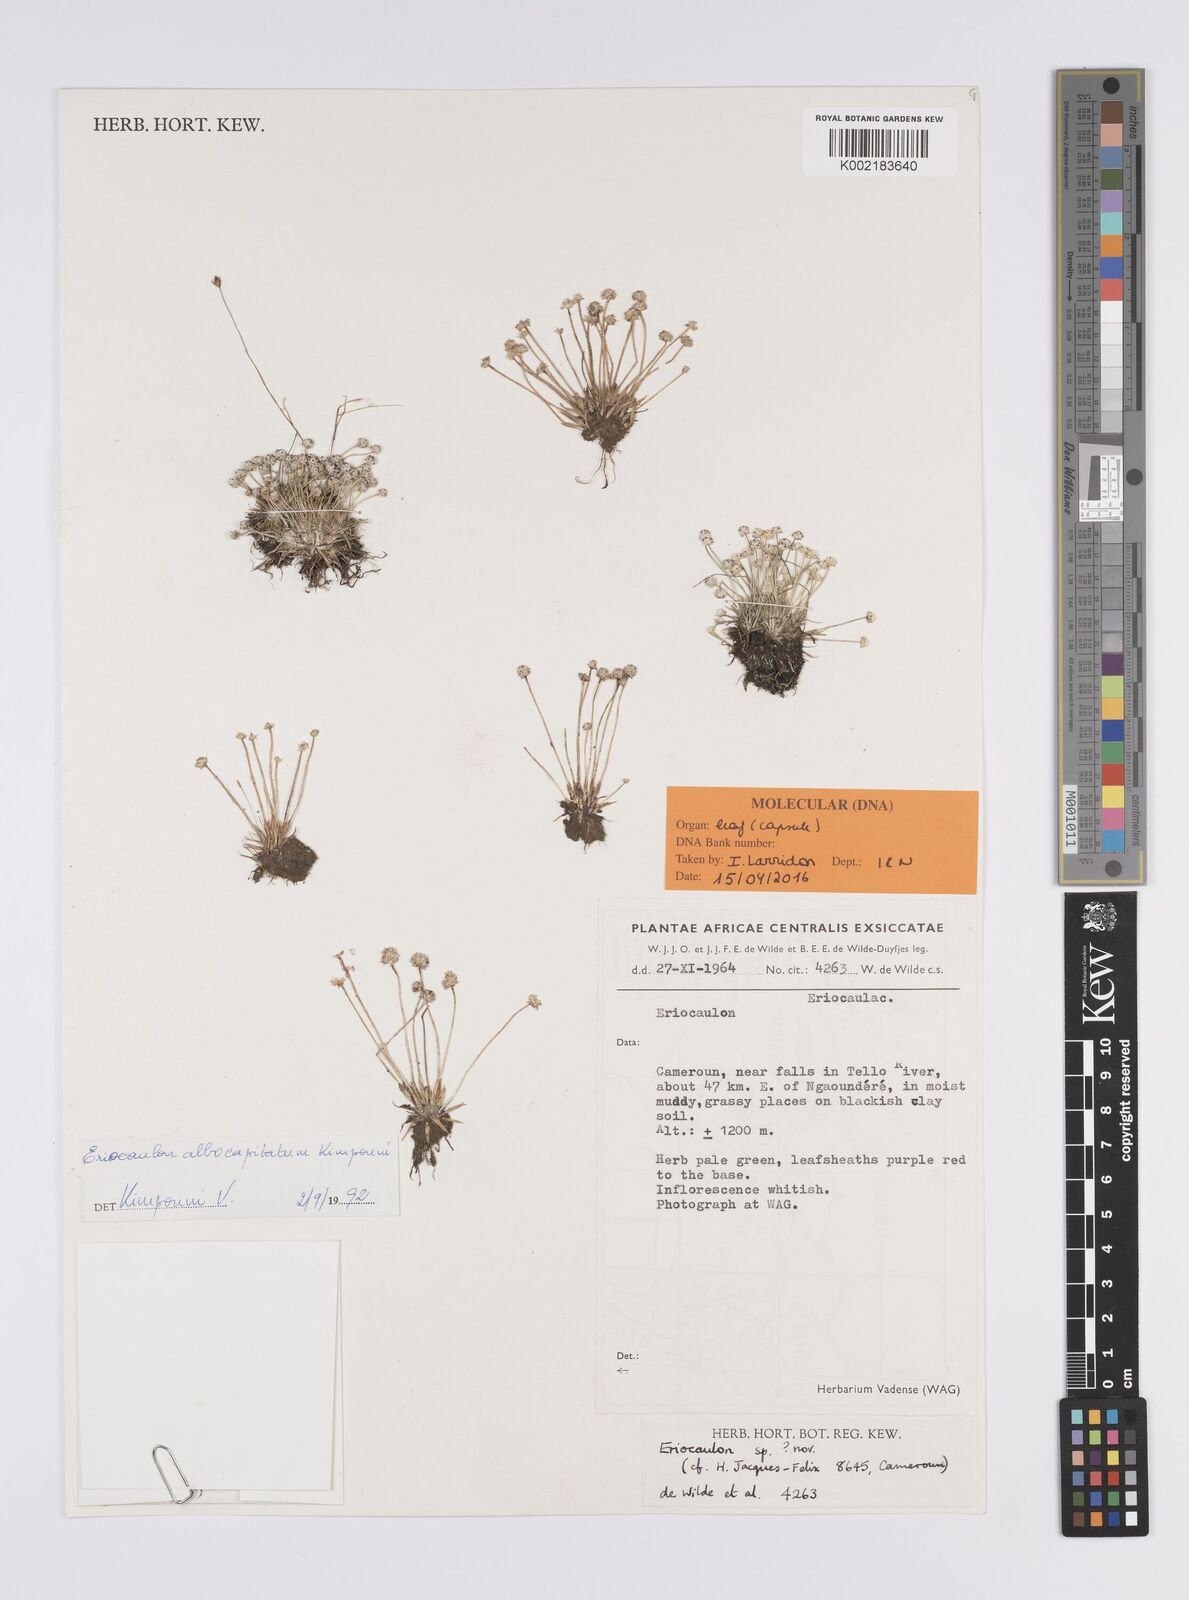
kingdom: Plantae
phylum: Tracheophyta
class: Liliopsida
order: Poales
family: Eriocaulaceae
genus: Eriocaulon
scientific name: Eriocaulon albocapitatum
